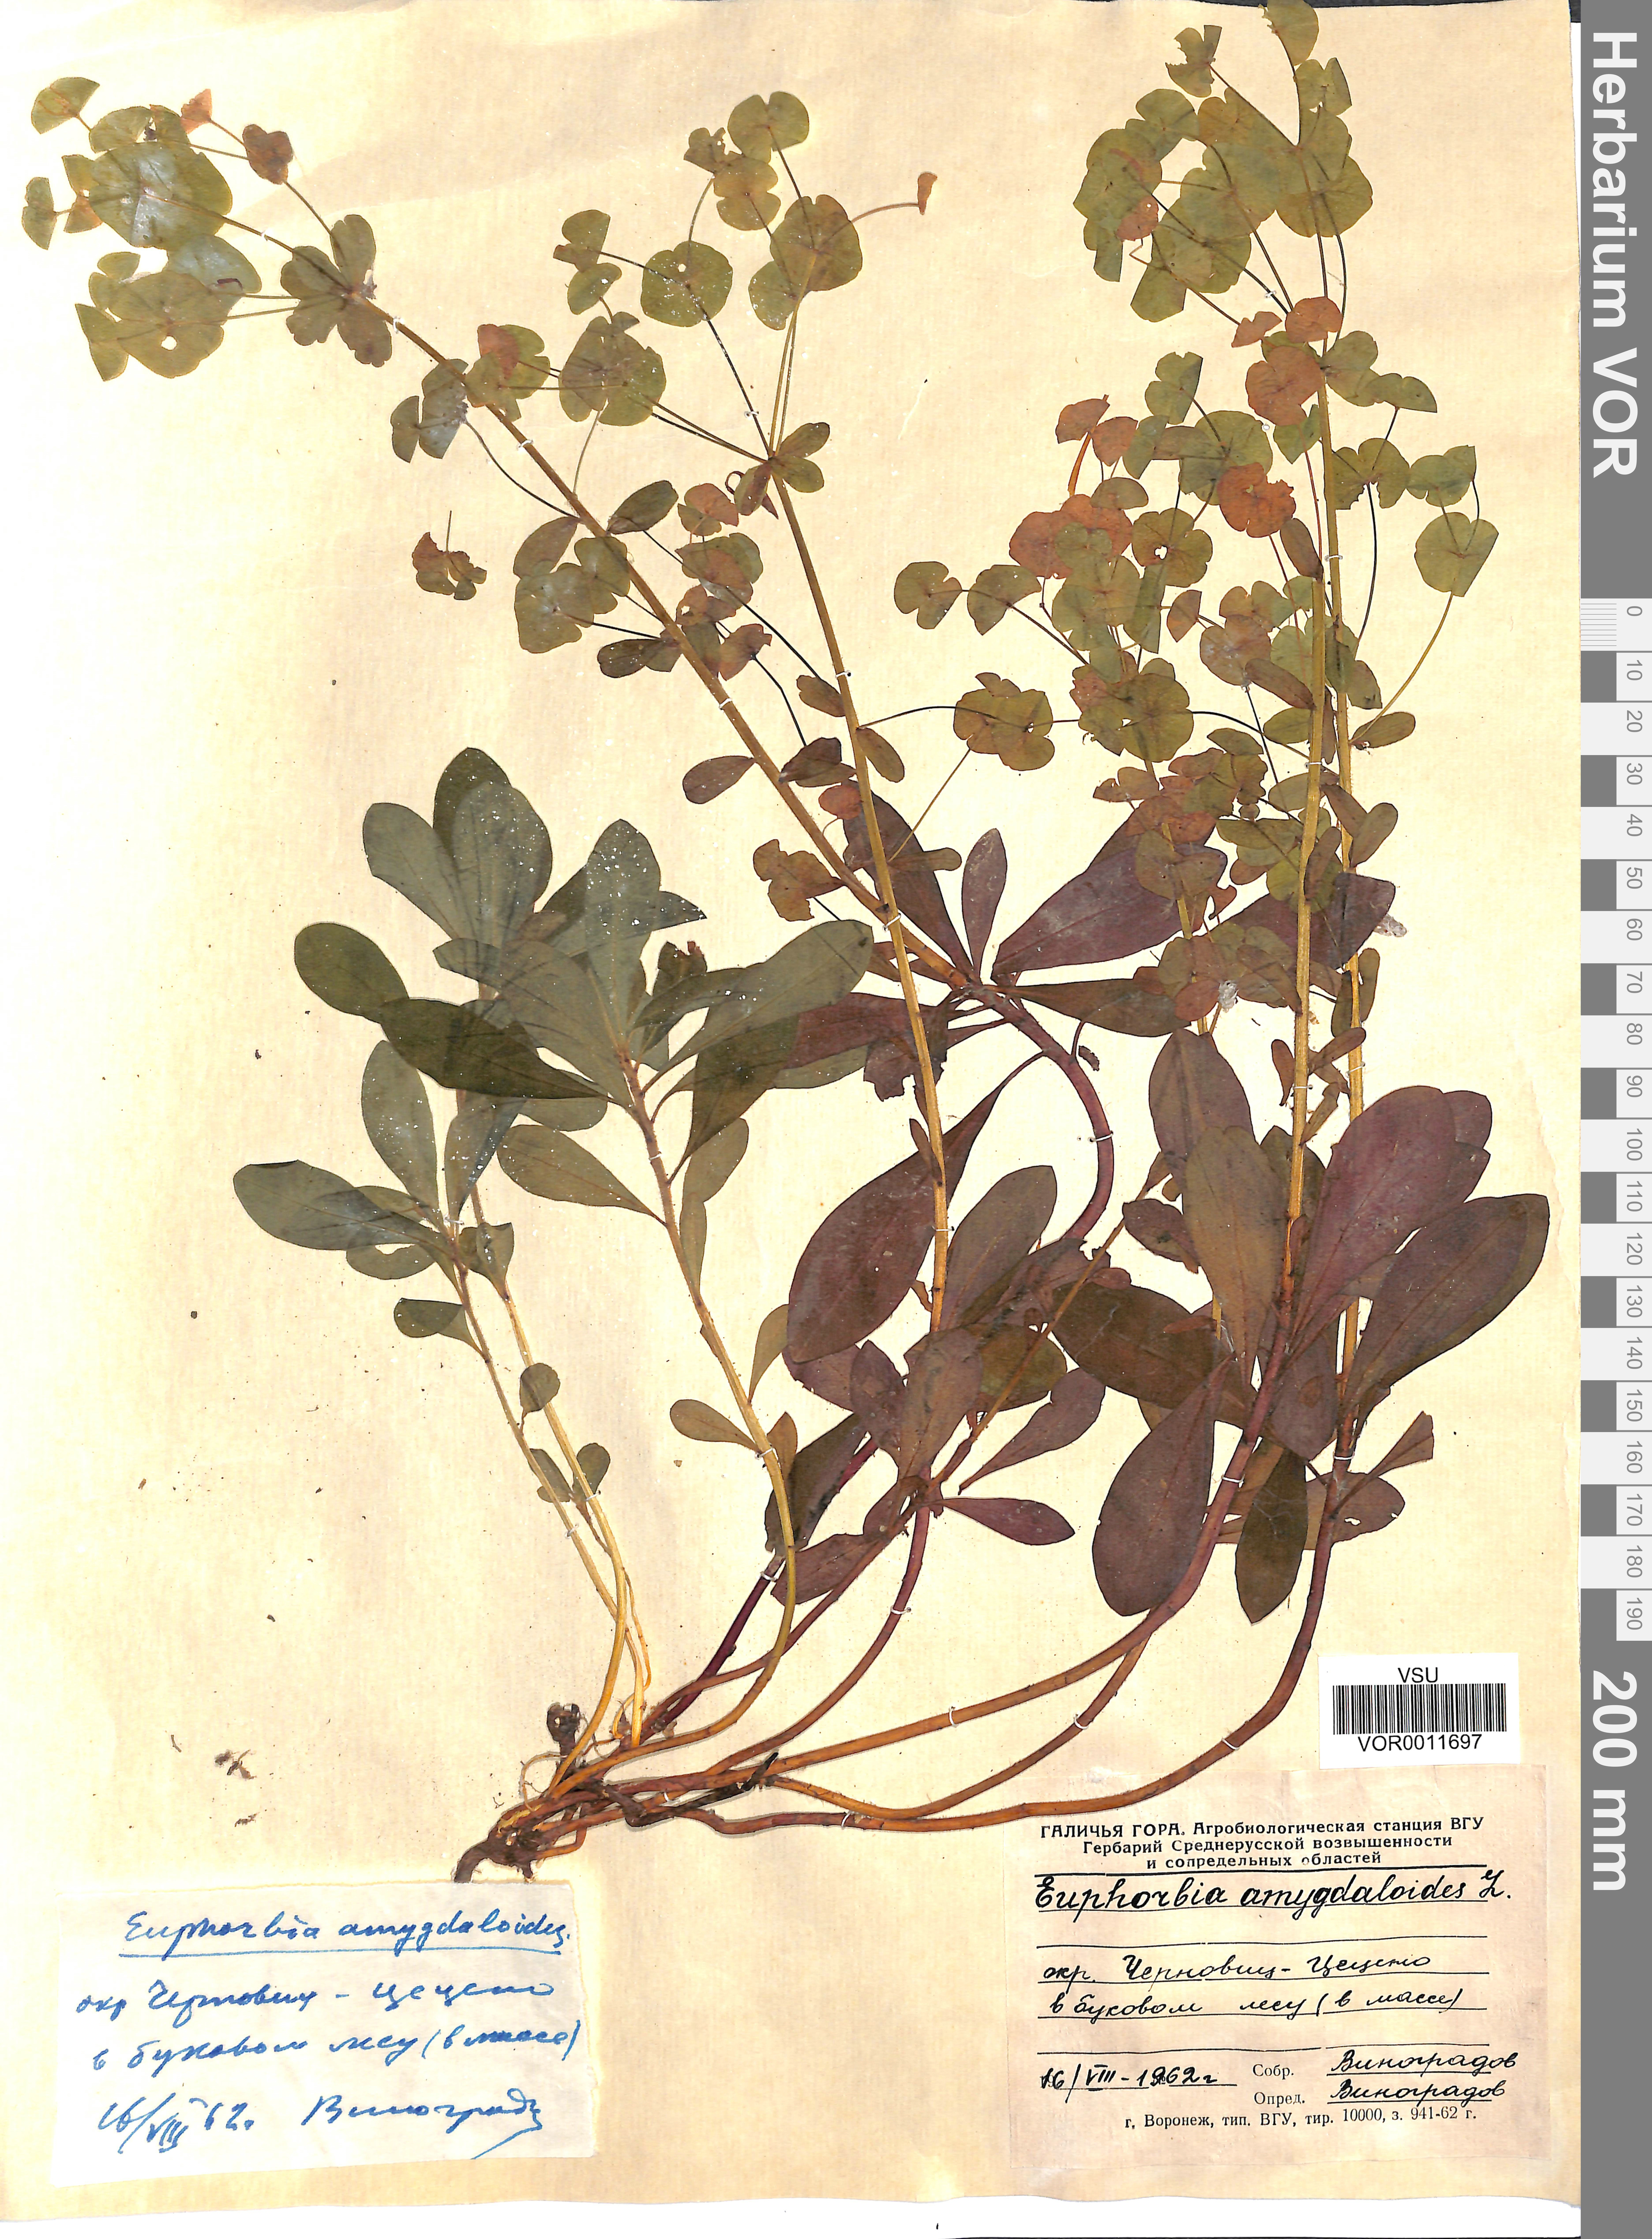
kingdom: Plantae
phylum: Tracheophyta
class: Magnoliopsida
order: Malpighiales
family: Euphorbiaceae
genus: Euphorbia
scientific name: Euphorbia amygdaloides
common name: Wood spurge
